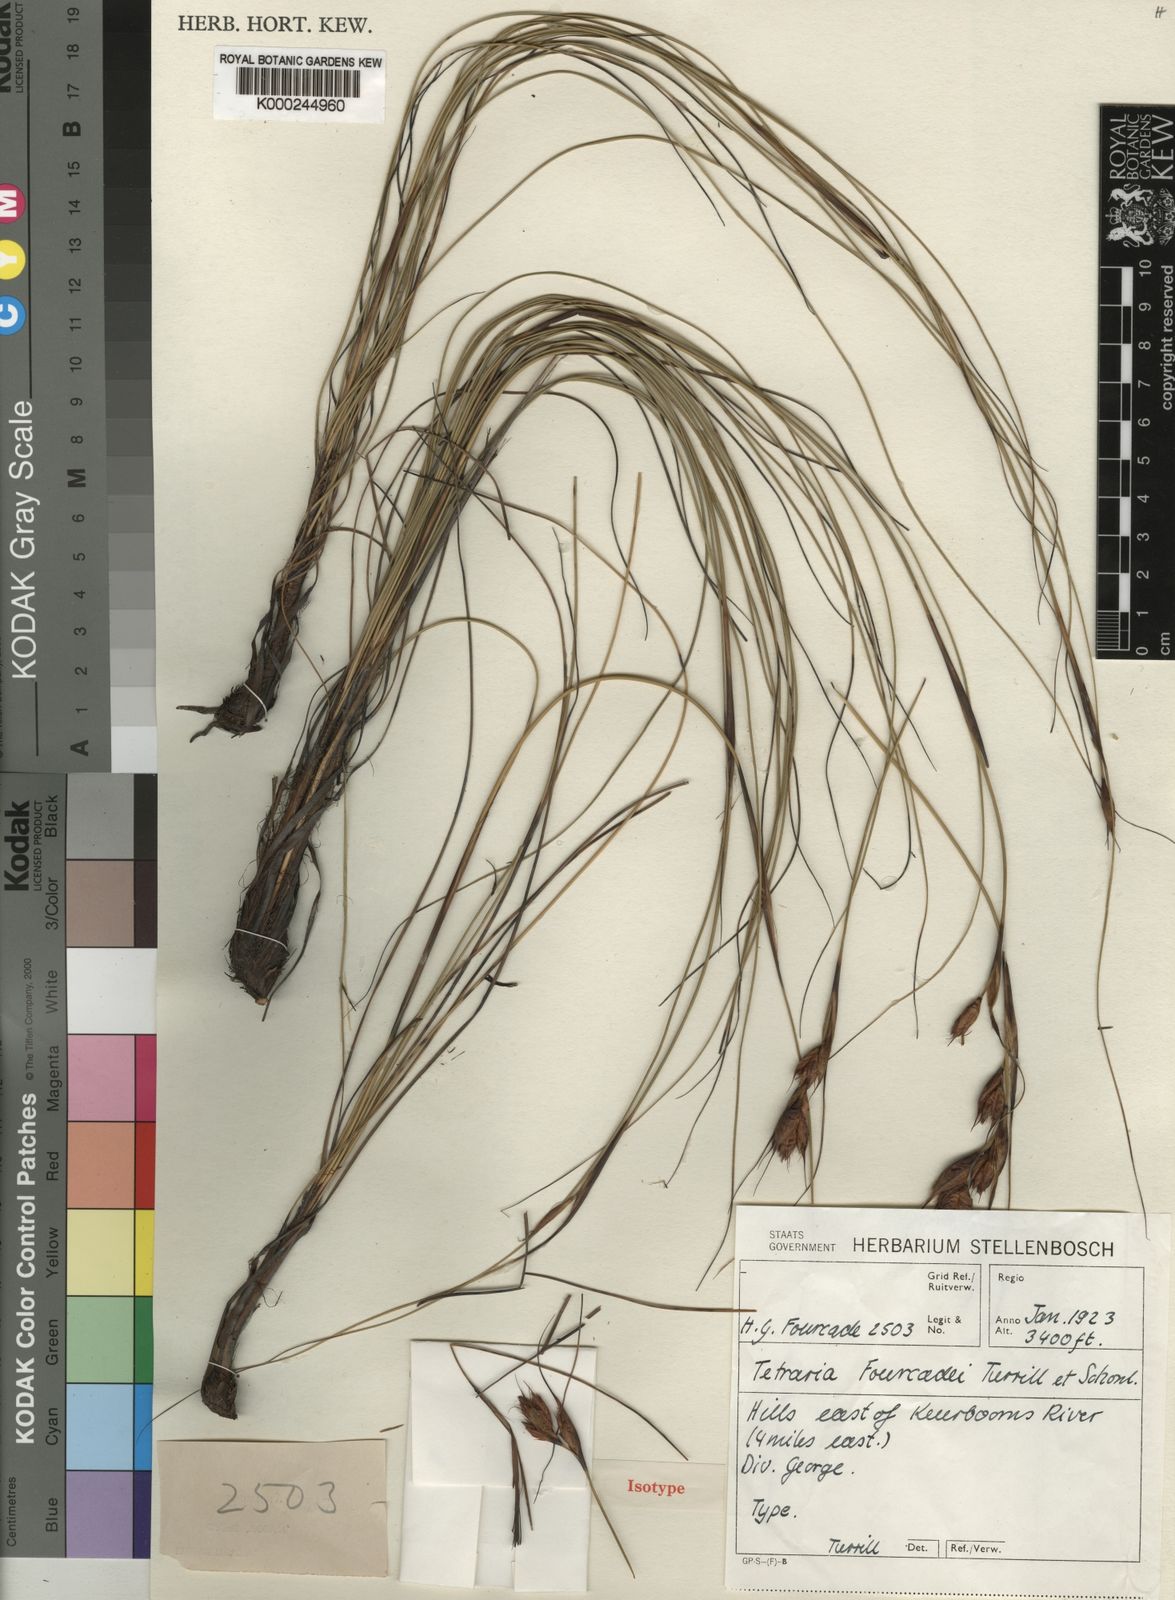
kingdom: Plantae
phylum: Tracheophyta
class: Liliopsida
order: Poales
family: Cyperaceae
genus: Tetraria
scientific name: Tetraria
